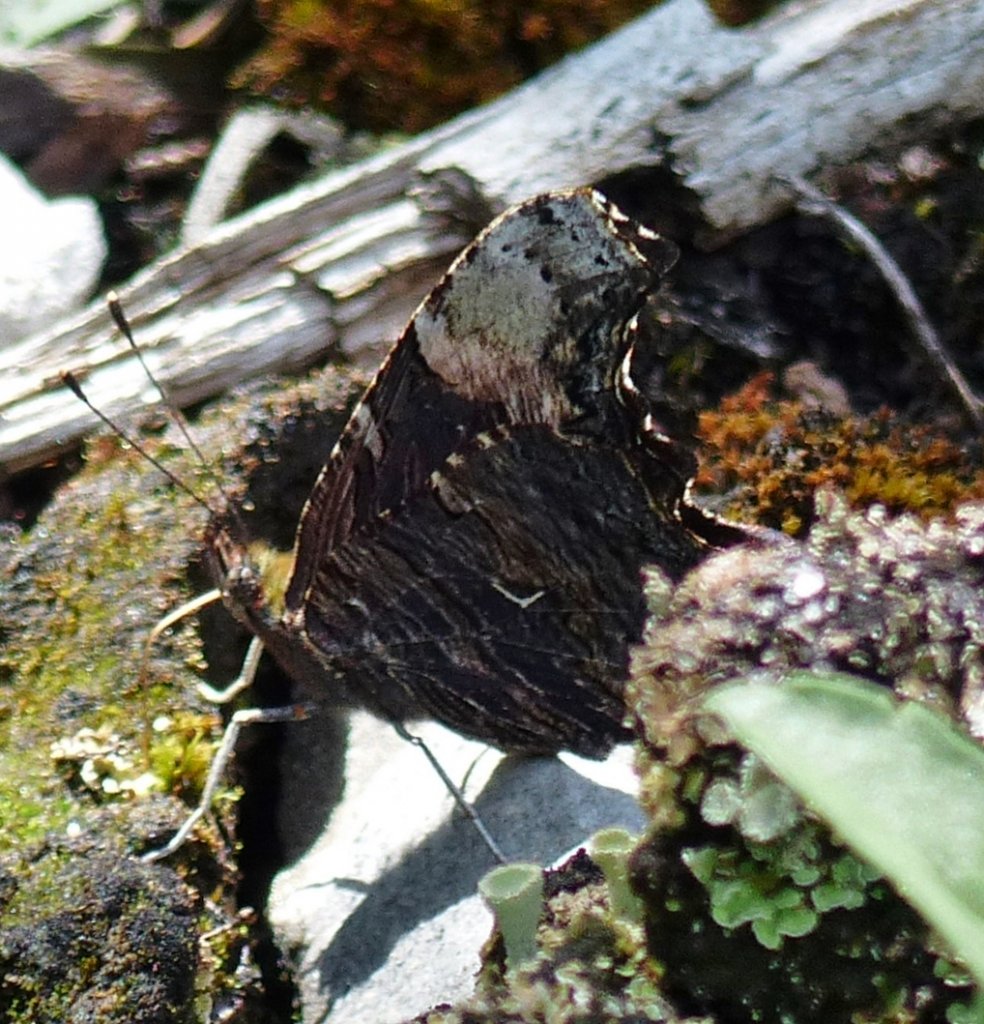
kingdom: Animalia
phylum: Arthropoda
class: Insecta
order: Lepidoptera
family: Nymphalidae
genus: Polygonia
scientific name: Polygonia progne
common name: Gray Comma
